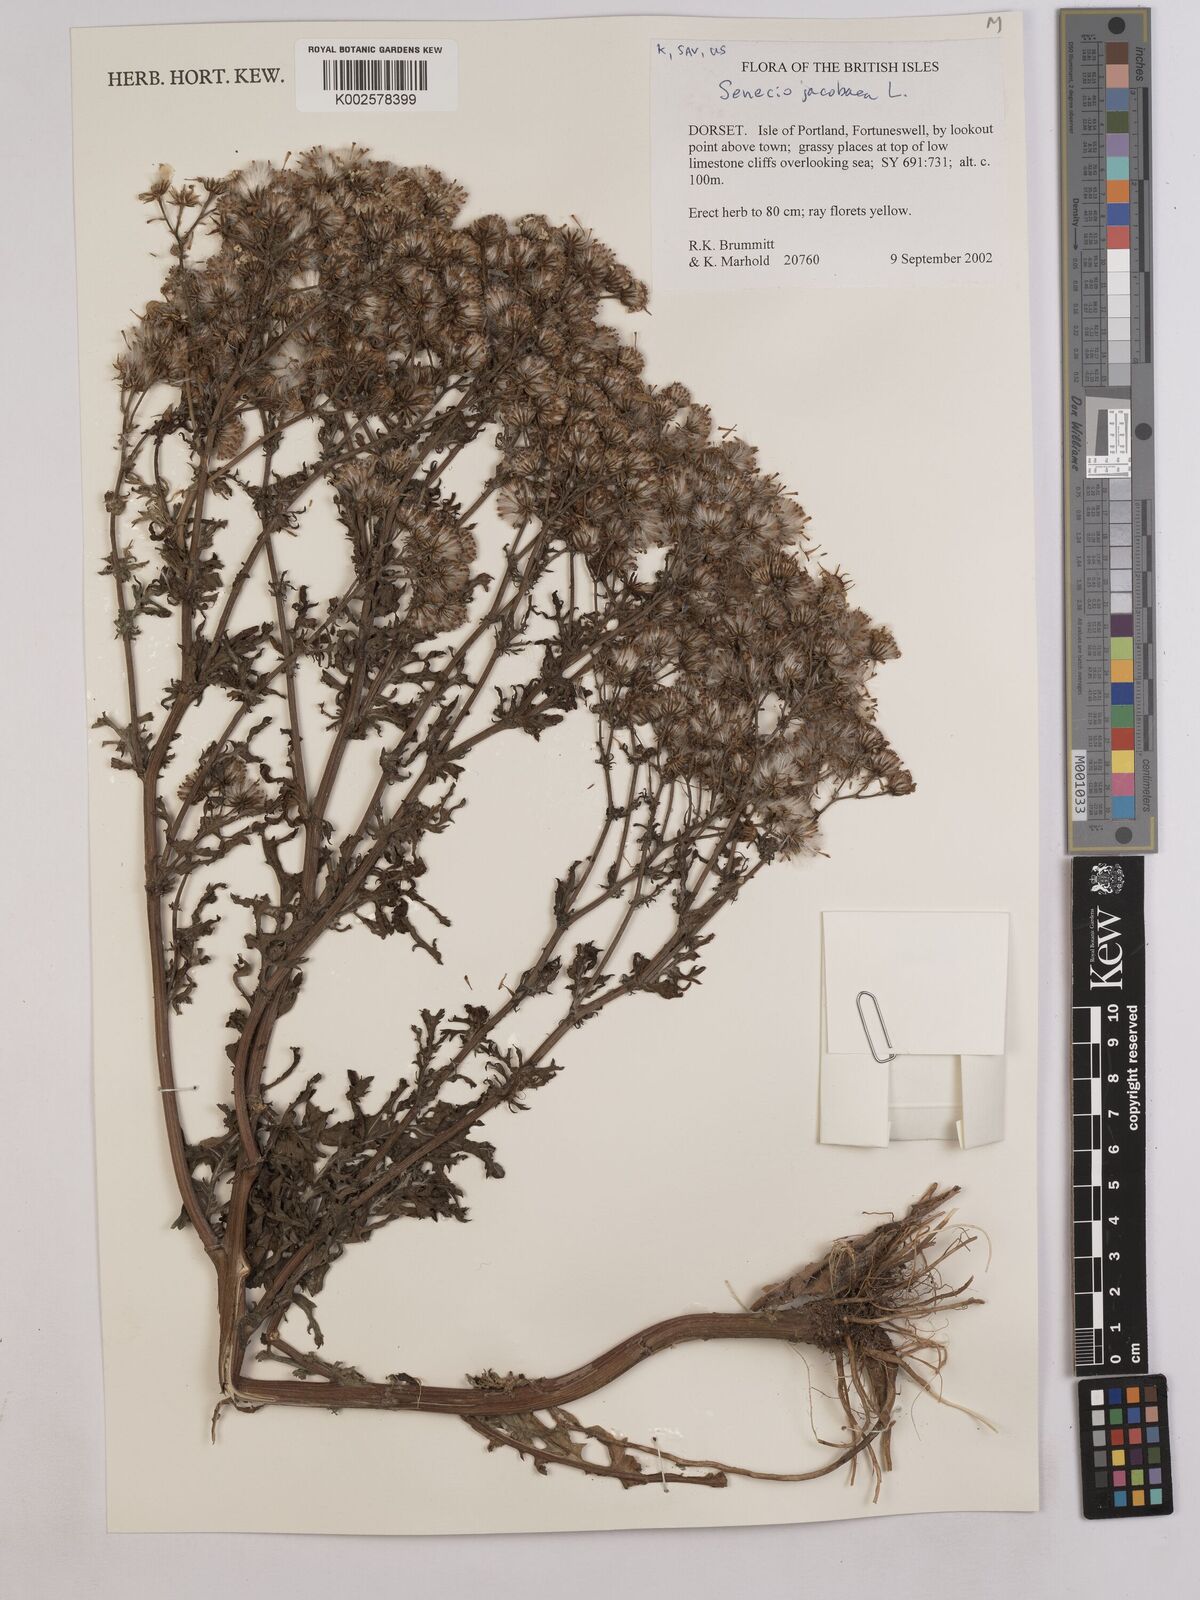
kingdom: Plantae
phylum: Tracheophyta
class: Magnoliopsida
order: Asterales
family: Asteraceae
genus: Jacobaea
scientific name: Jacobaea vulgaris
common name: Stinking willie
